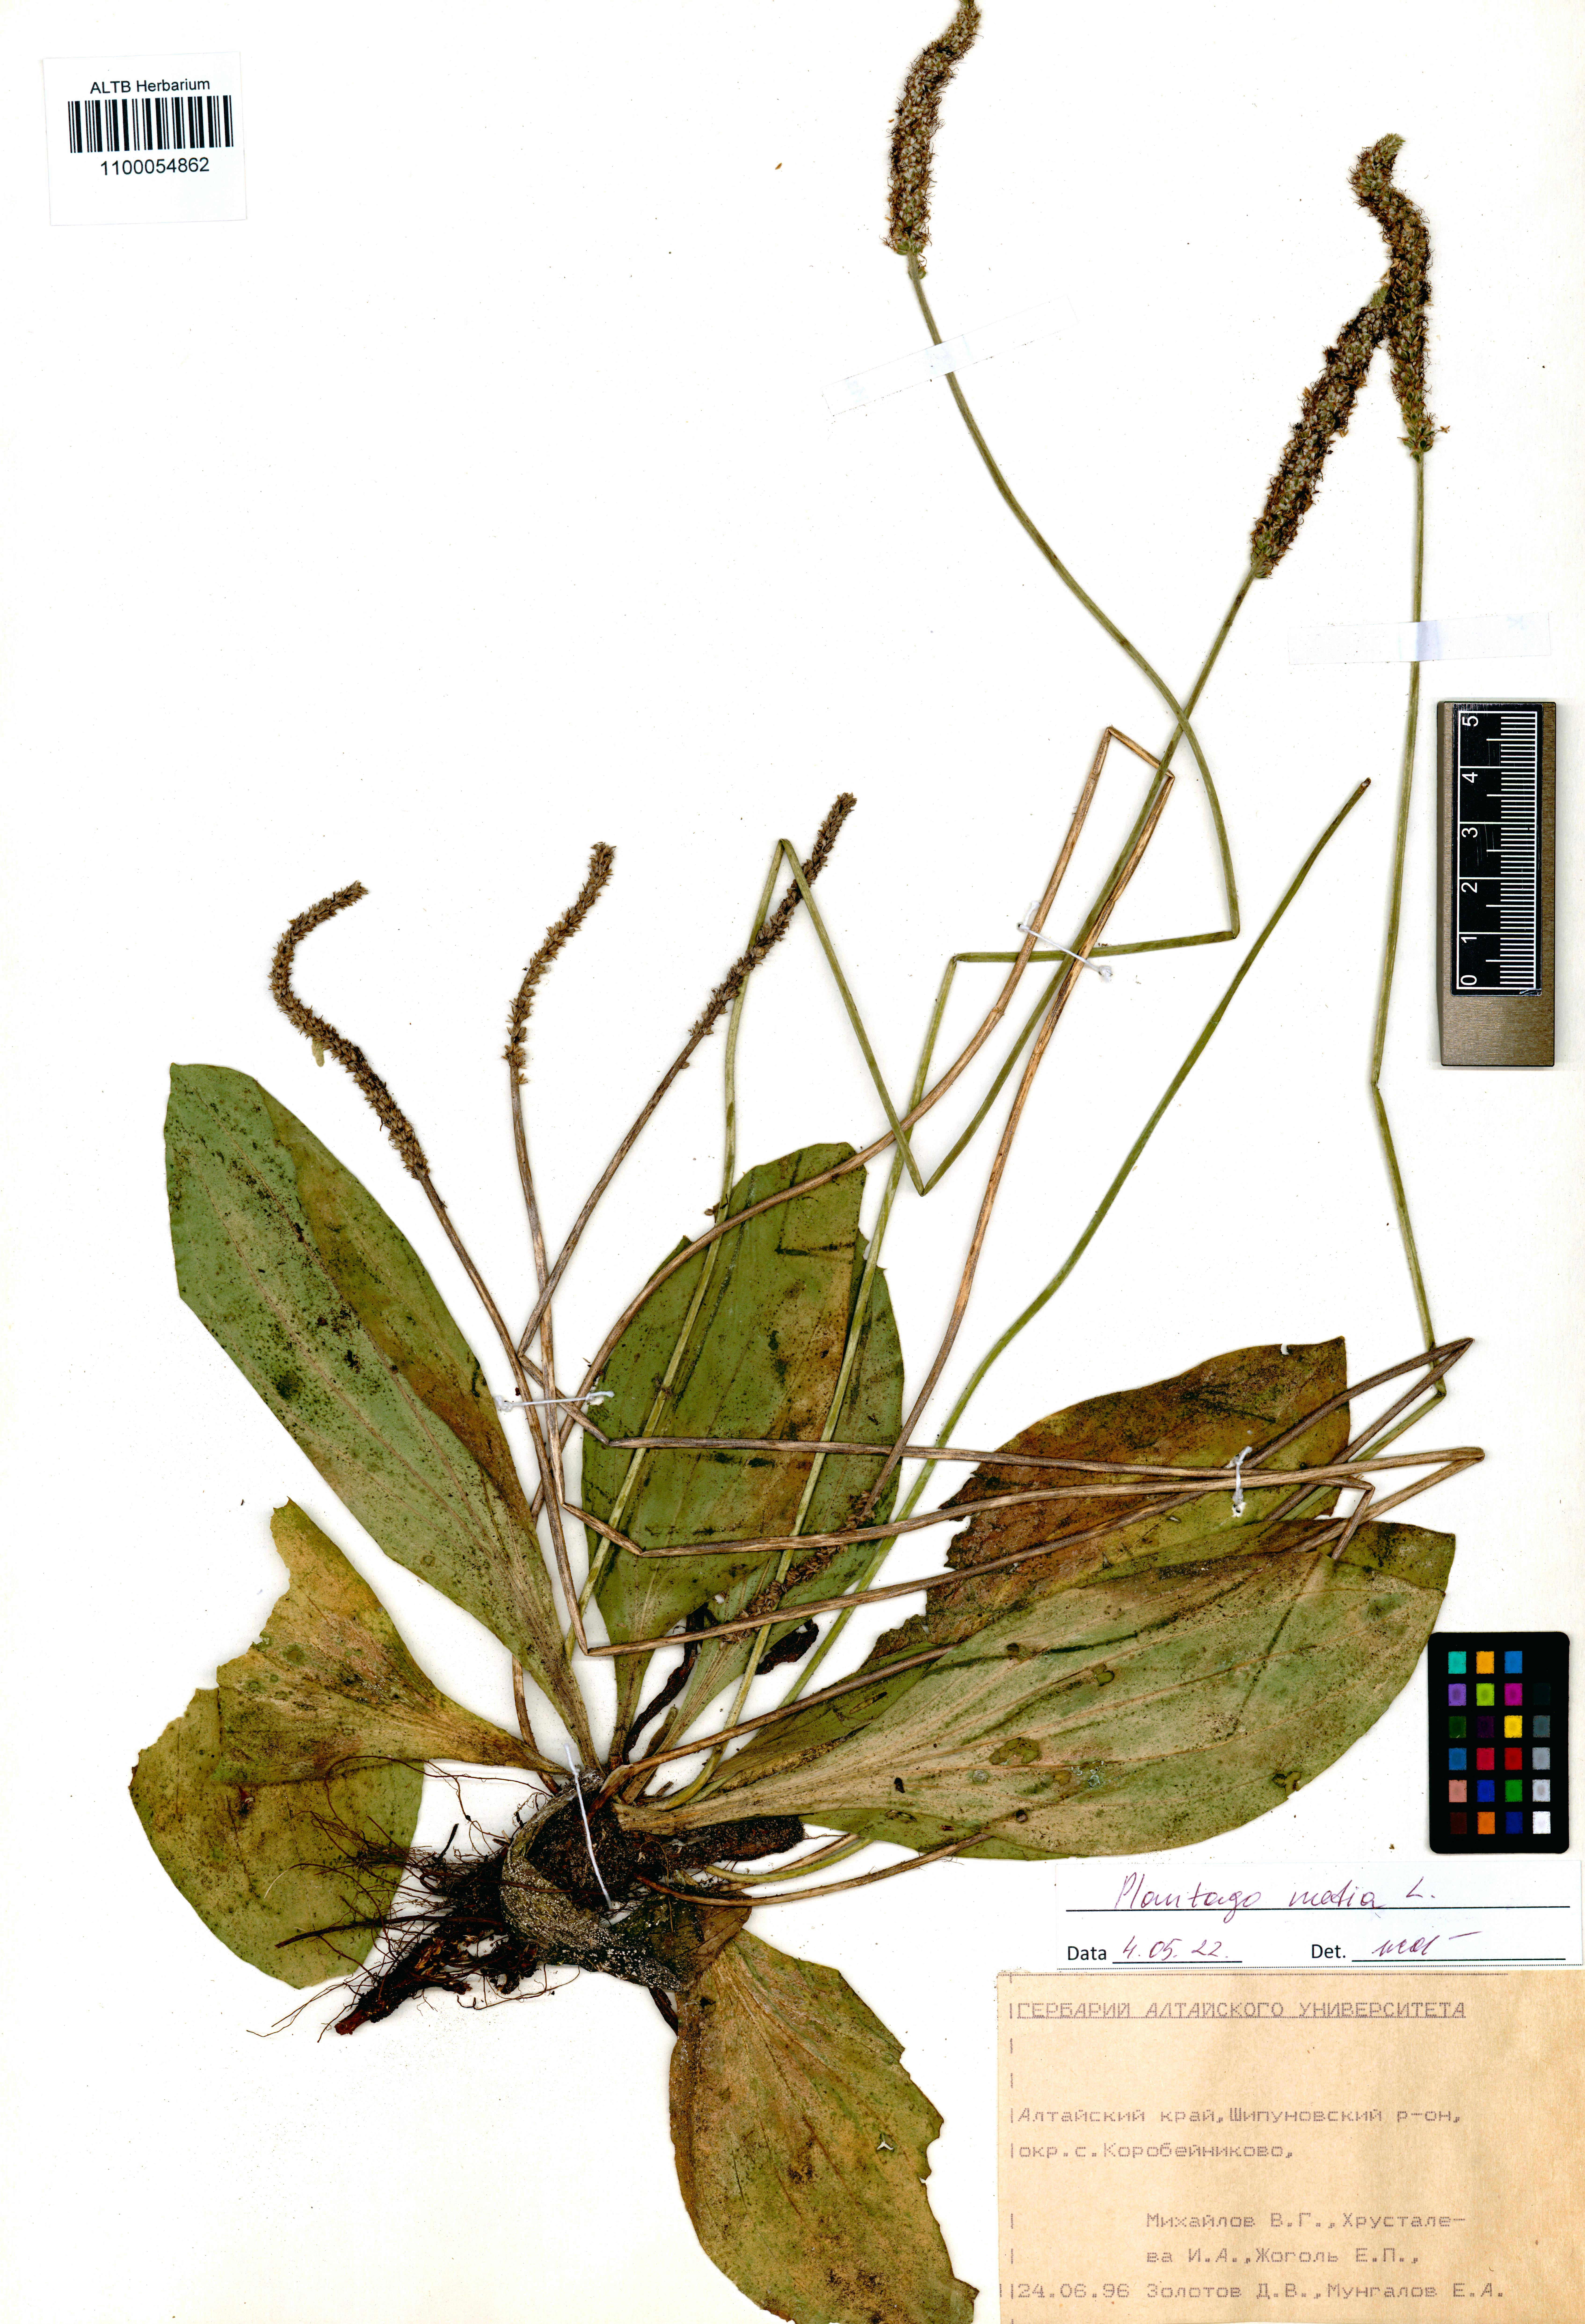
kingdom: Plantae
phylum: Tracheophyta
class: Magnoliopsida
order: Lamiales
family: Plantaginaceae
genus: Plantago
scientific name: Plantago media
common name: Hoary plantain
